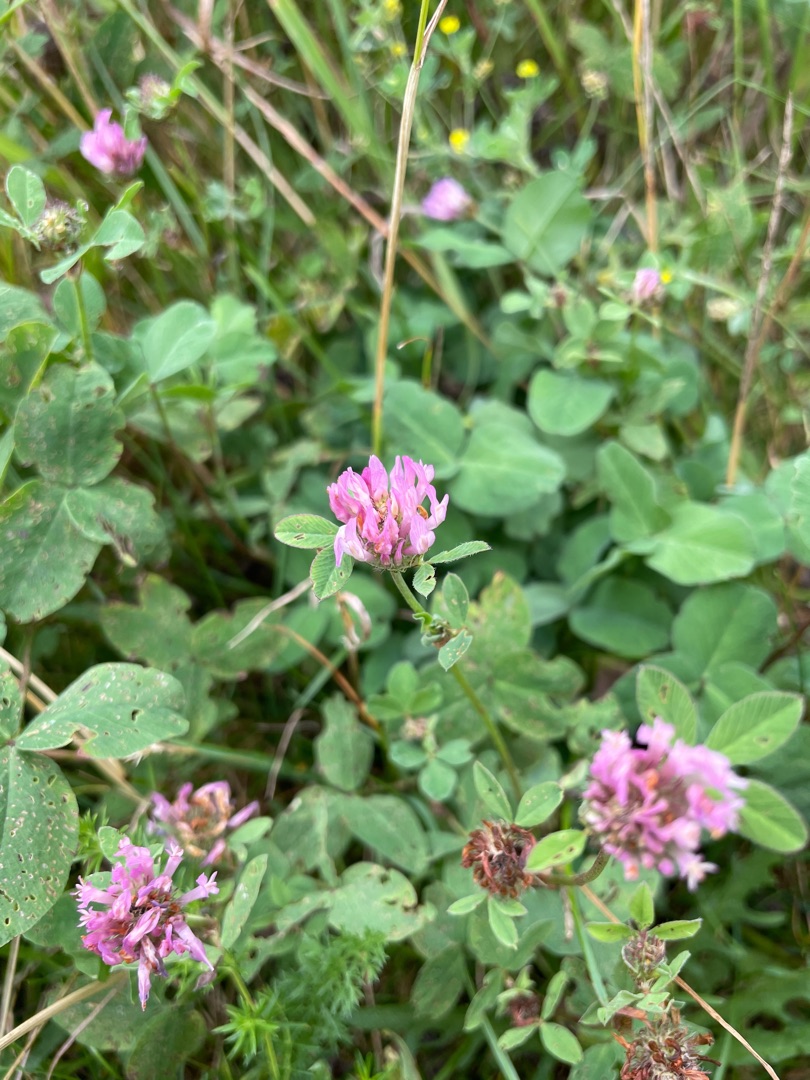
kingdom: Plantae
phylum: Tracheophyta
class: Magnoliopsida
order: Fabales
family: Fabaceae
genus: Trifolium
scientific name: Trifolium pratense
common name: Rød-kløver
